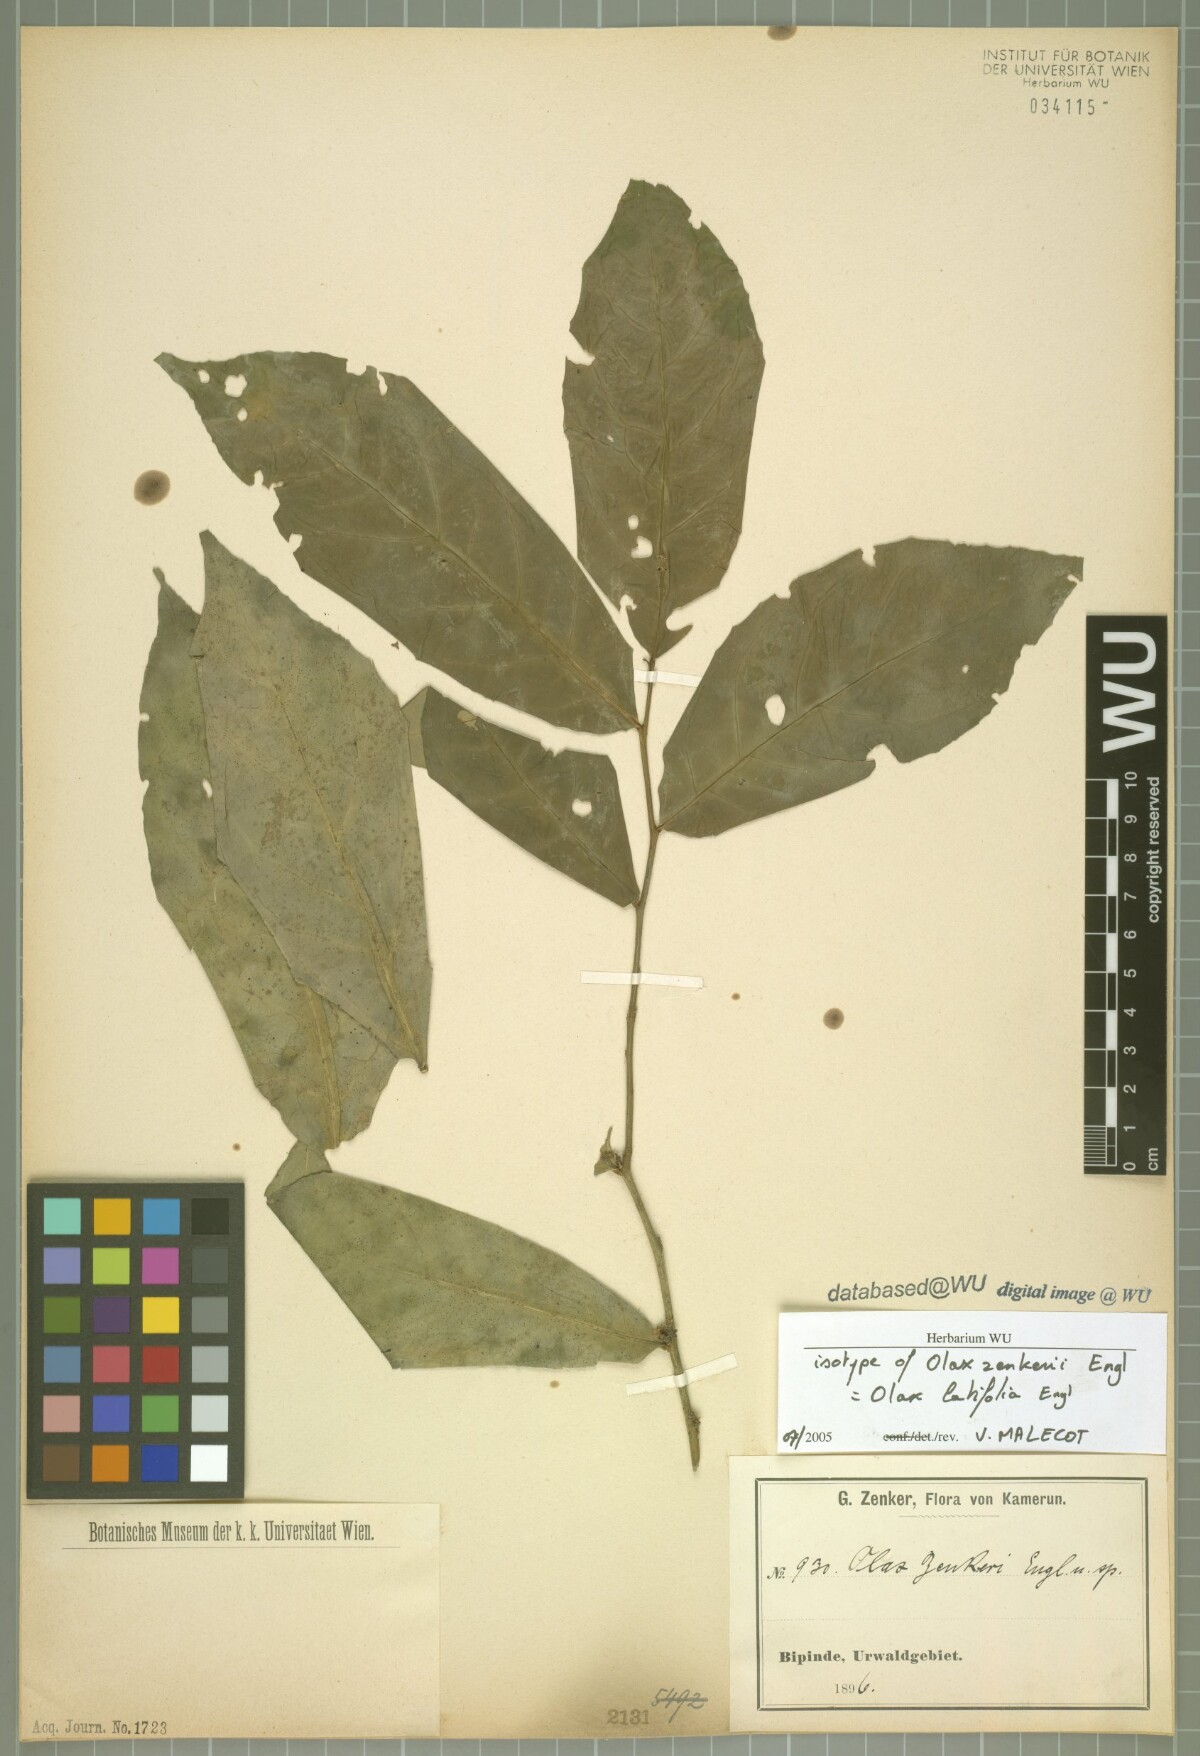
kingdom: Plantae
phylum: Tracheophyta
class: Magnoliopsida
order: Santalales
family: Olacaceae
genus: Olax
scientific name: Olax mannii
